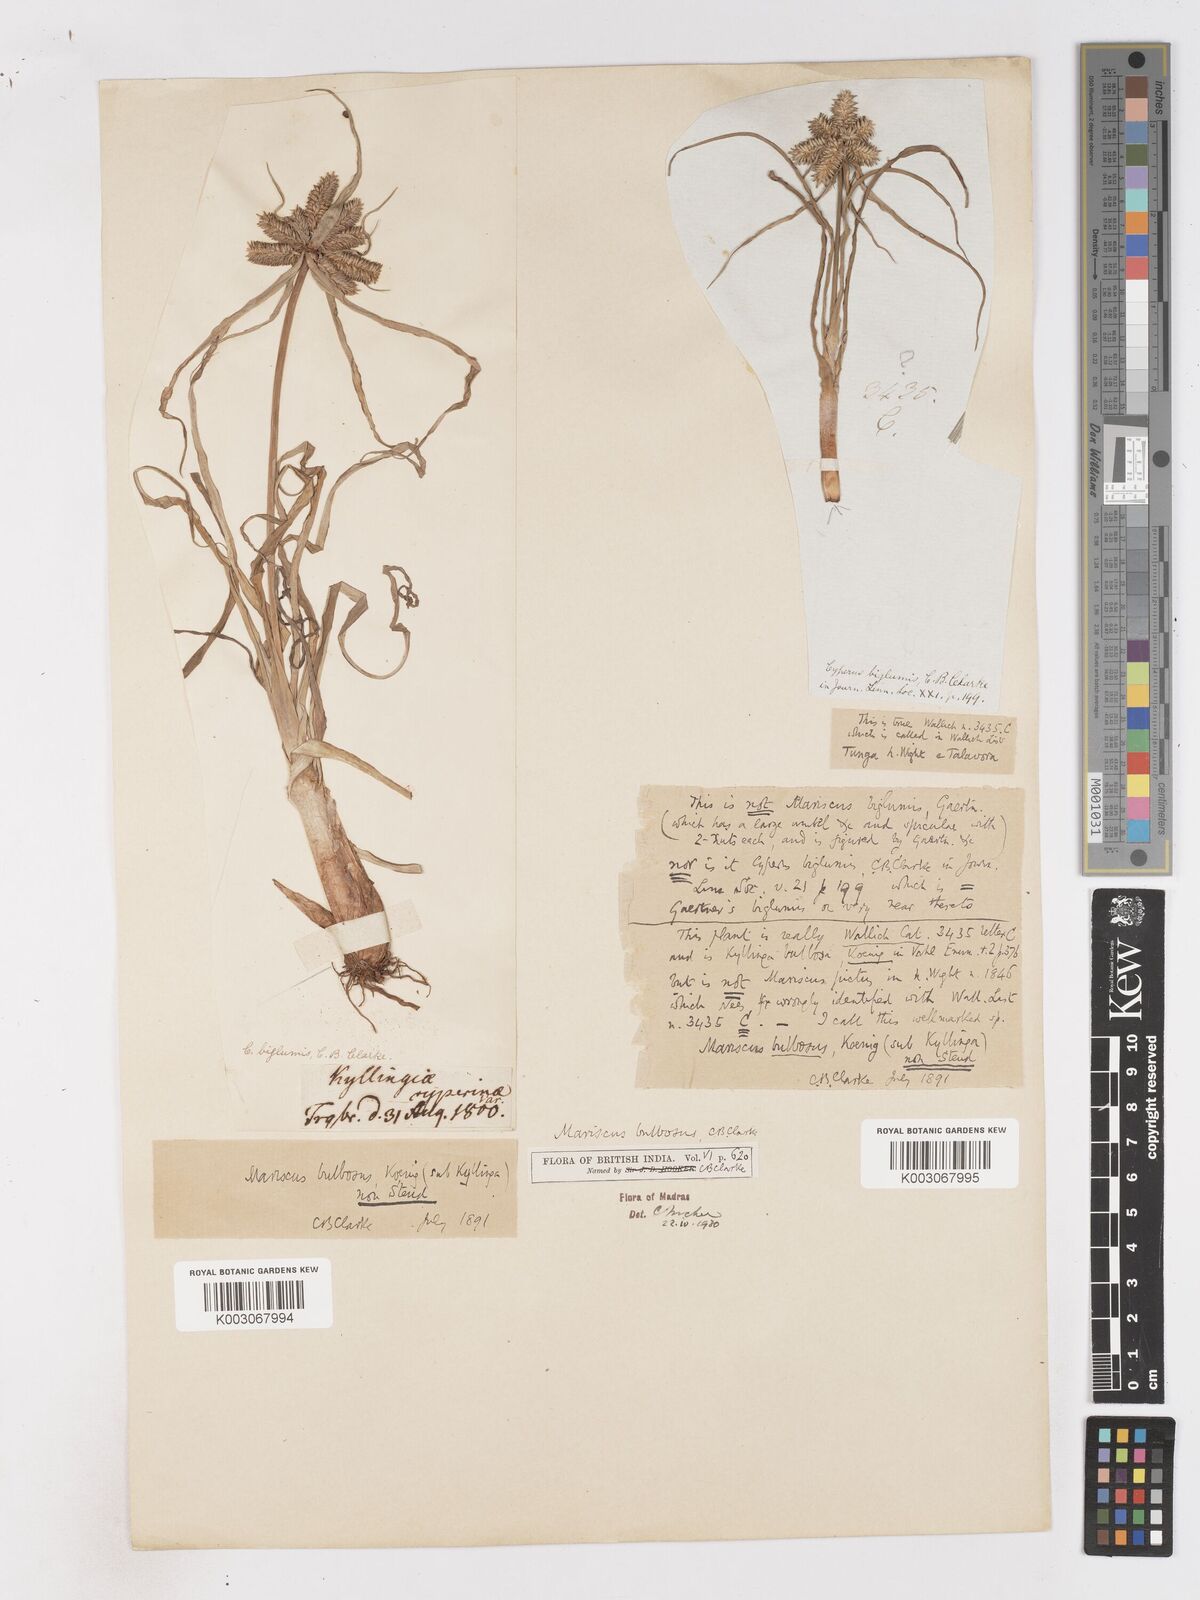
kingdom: Plantae
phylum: Tracheophyta
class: Liliopsida
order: Poales
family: Cyperaceae
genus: Cyperus
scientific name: Cyperus clarkei
